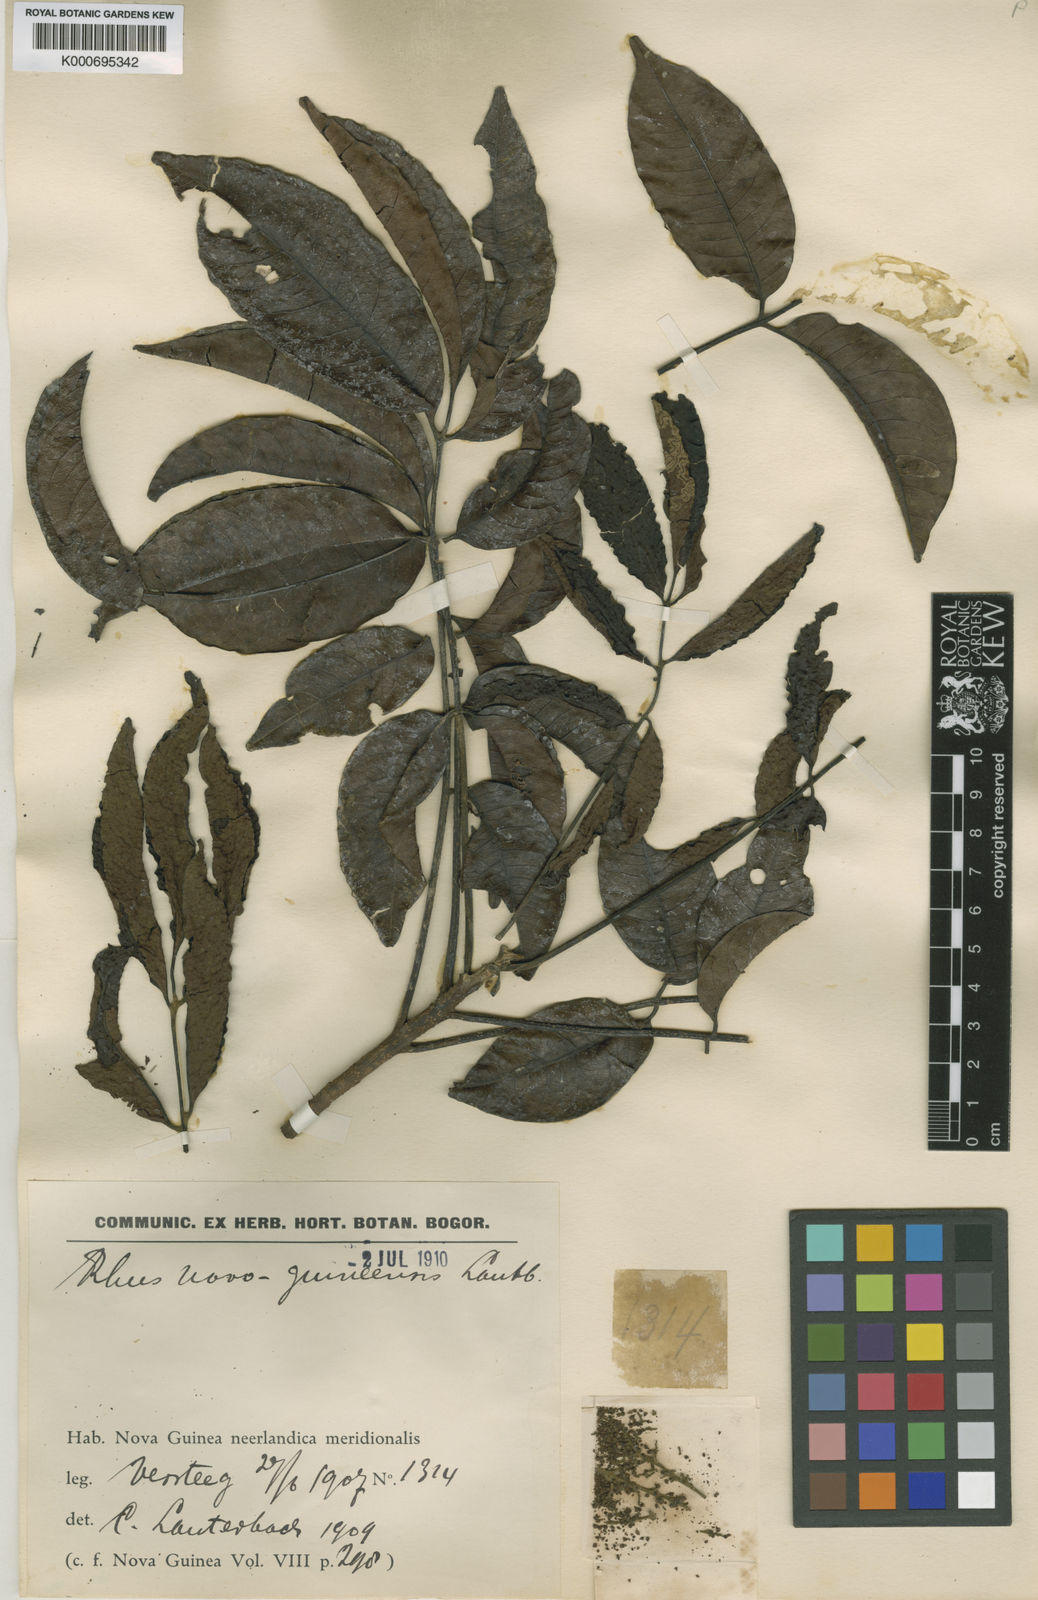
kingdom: Plantae
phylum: Tracheophyta
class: Magnoliopsida
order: Sapindales
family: Anacardiaceae
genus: Pentaspadon
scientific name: Pentaspadon motleyi
